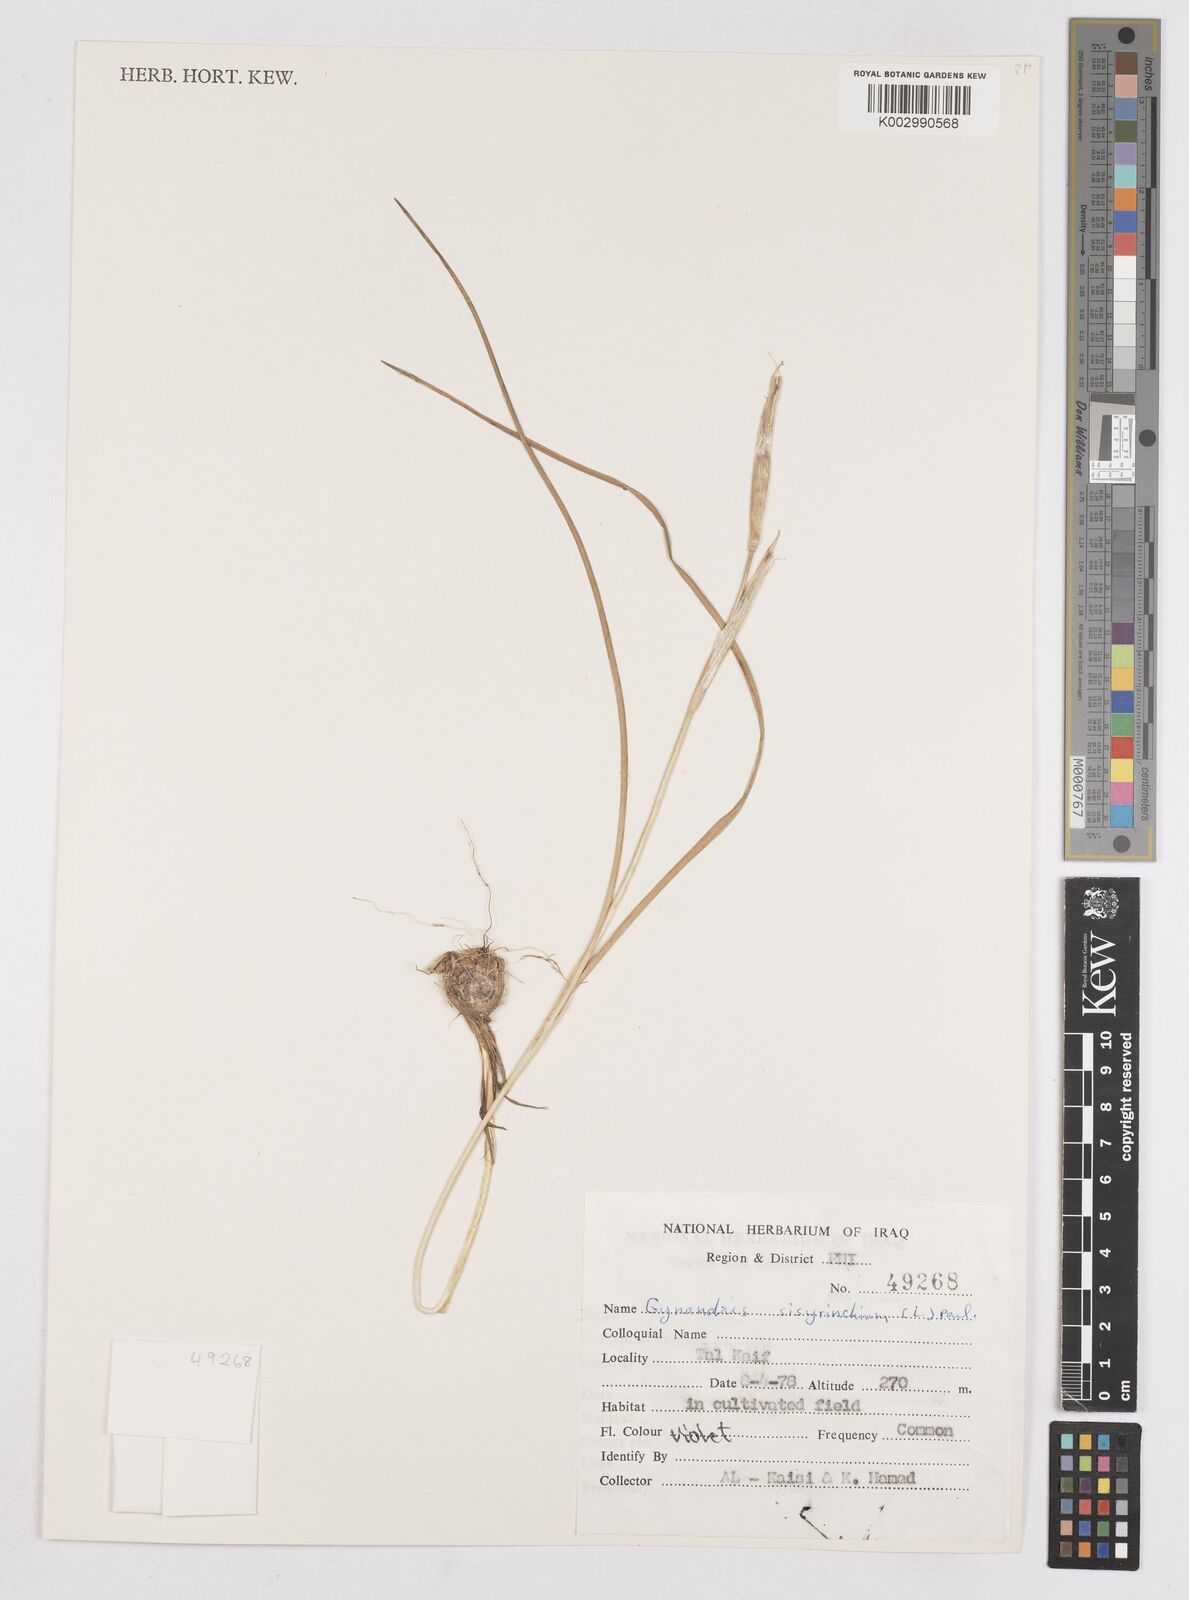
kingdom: Plantae
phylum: Tracheophyta
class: Liliopsida
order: Asparagales
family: Iridaceae
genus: Moraea
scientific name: Moraea sisyrinchium
